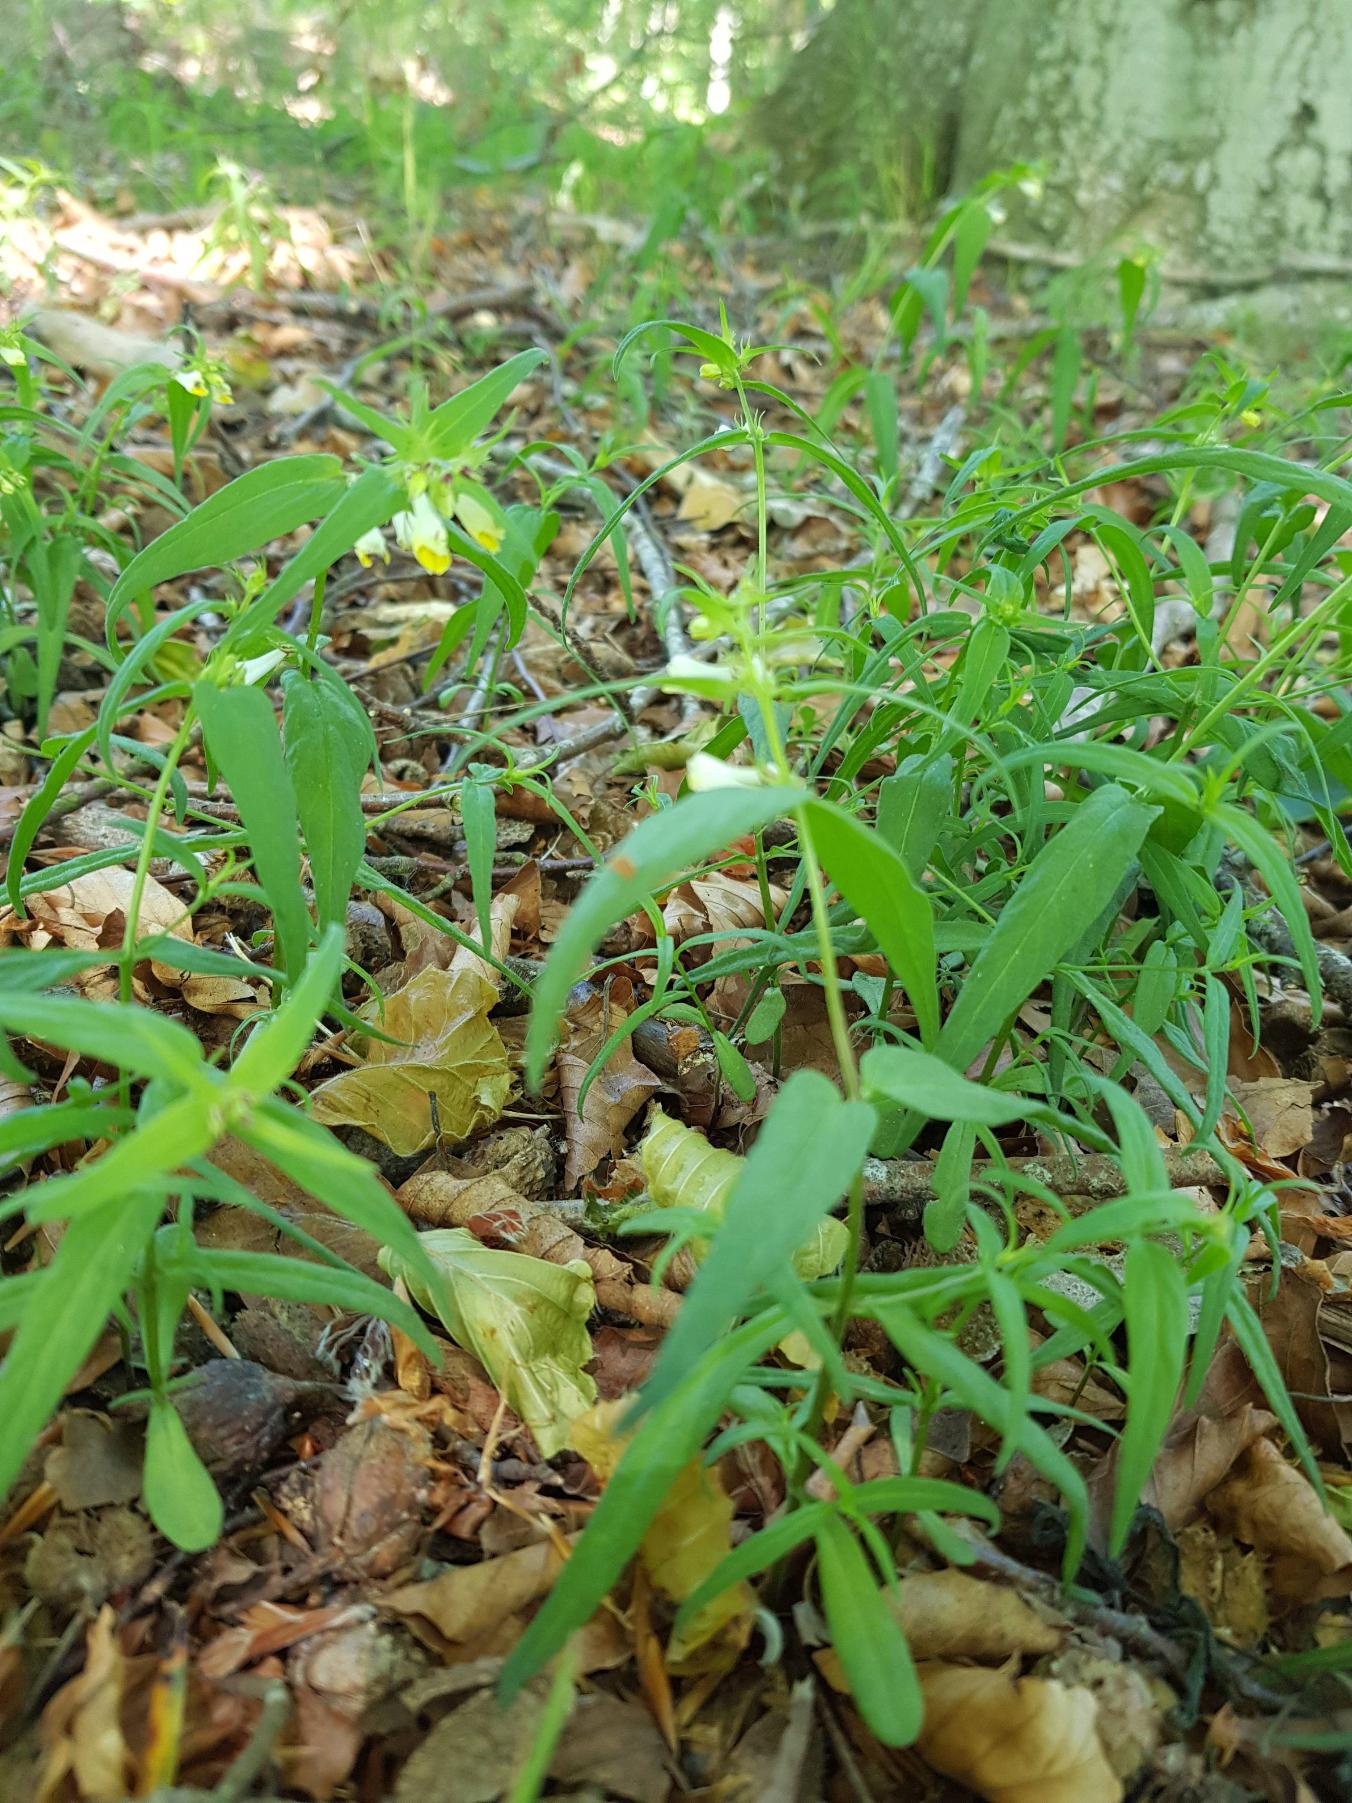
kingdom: Plantae
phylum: Tracheophyta
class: Magnoliopsida
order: Lamiales
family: Orobanchaceae
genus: Melampyrum
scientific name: Melampyrum pratense
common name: Almindelig kohvede
